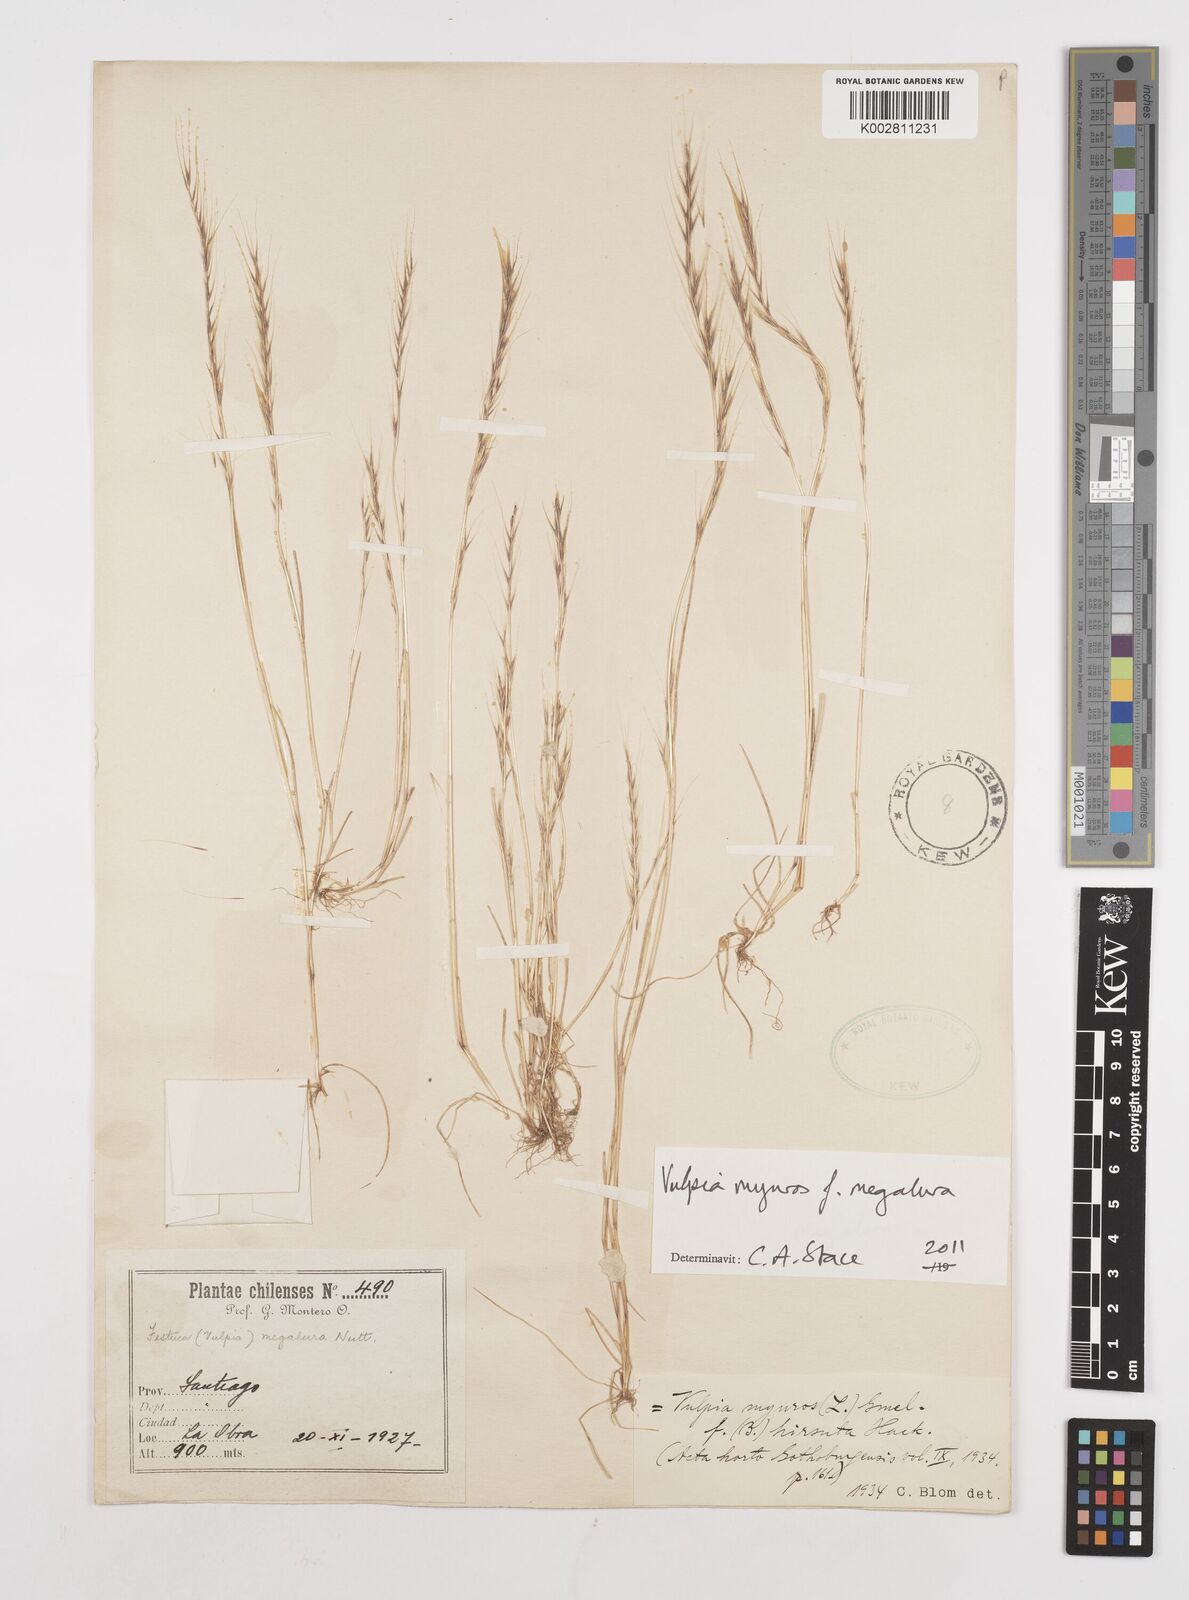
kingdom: Plantae
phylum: Tracheophyta
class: Liliopsida
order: Poales
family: Poaceae
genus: Festuca
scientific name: Festuca myuros
